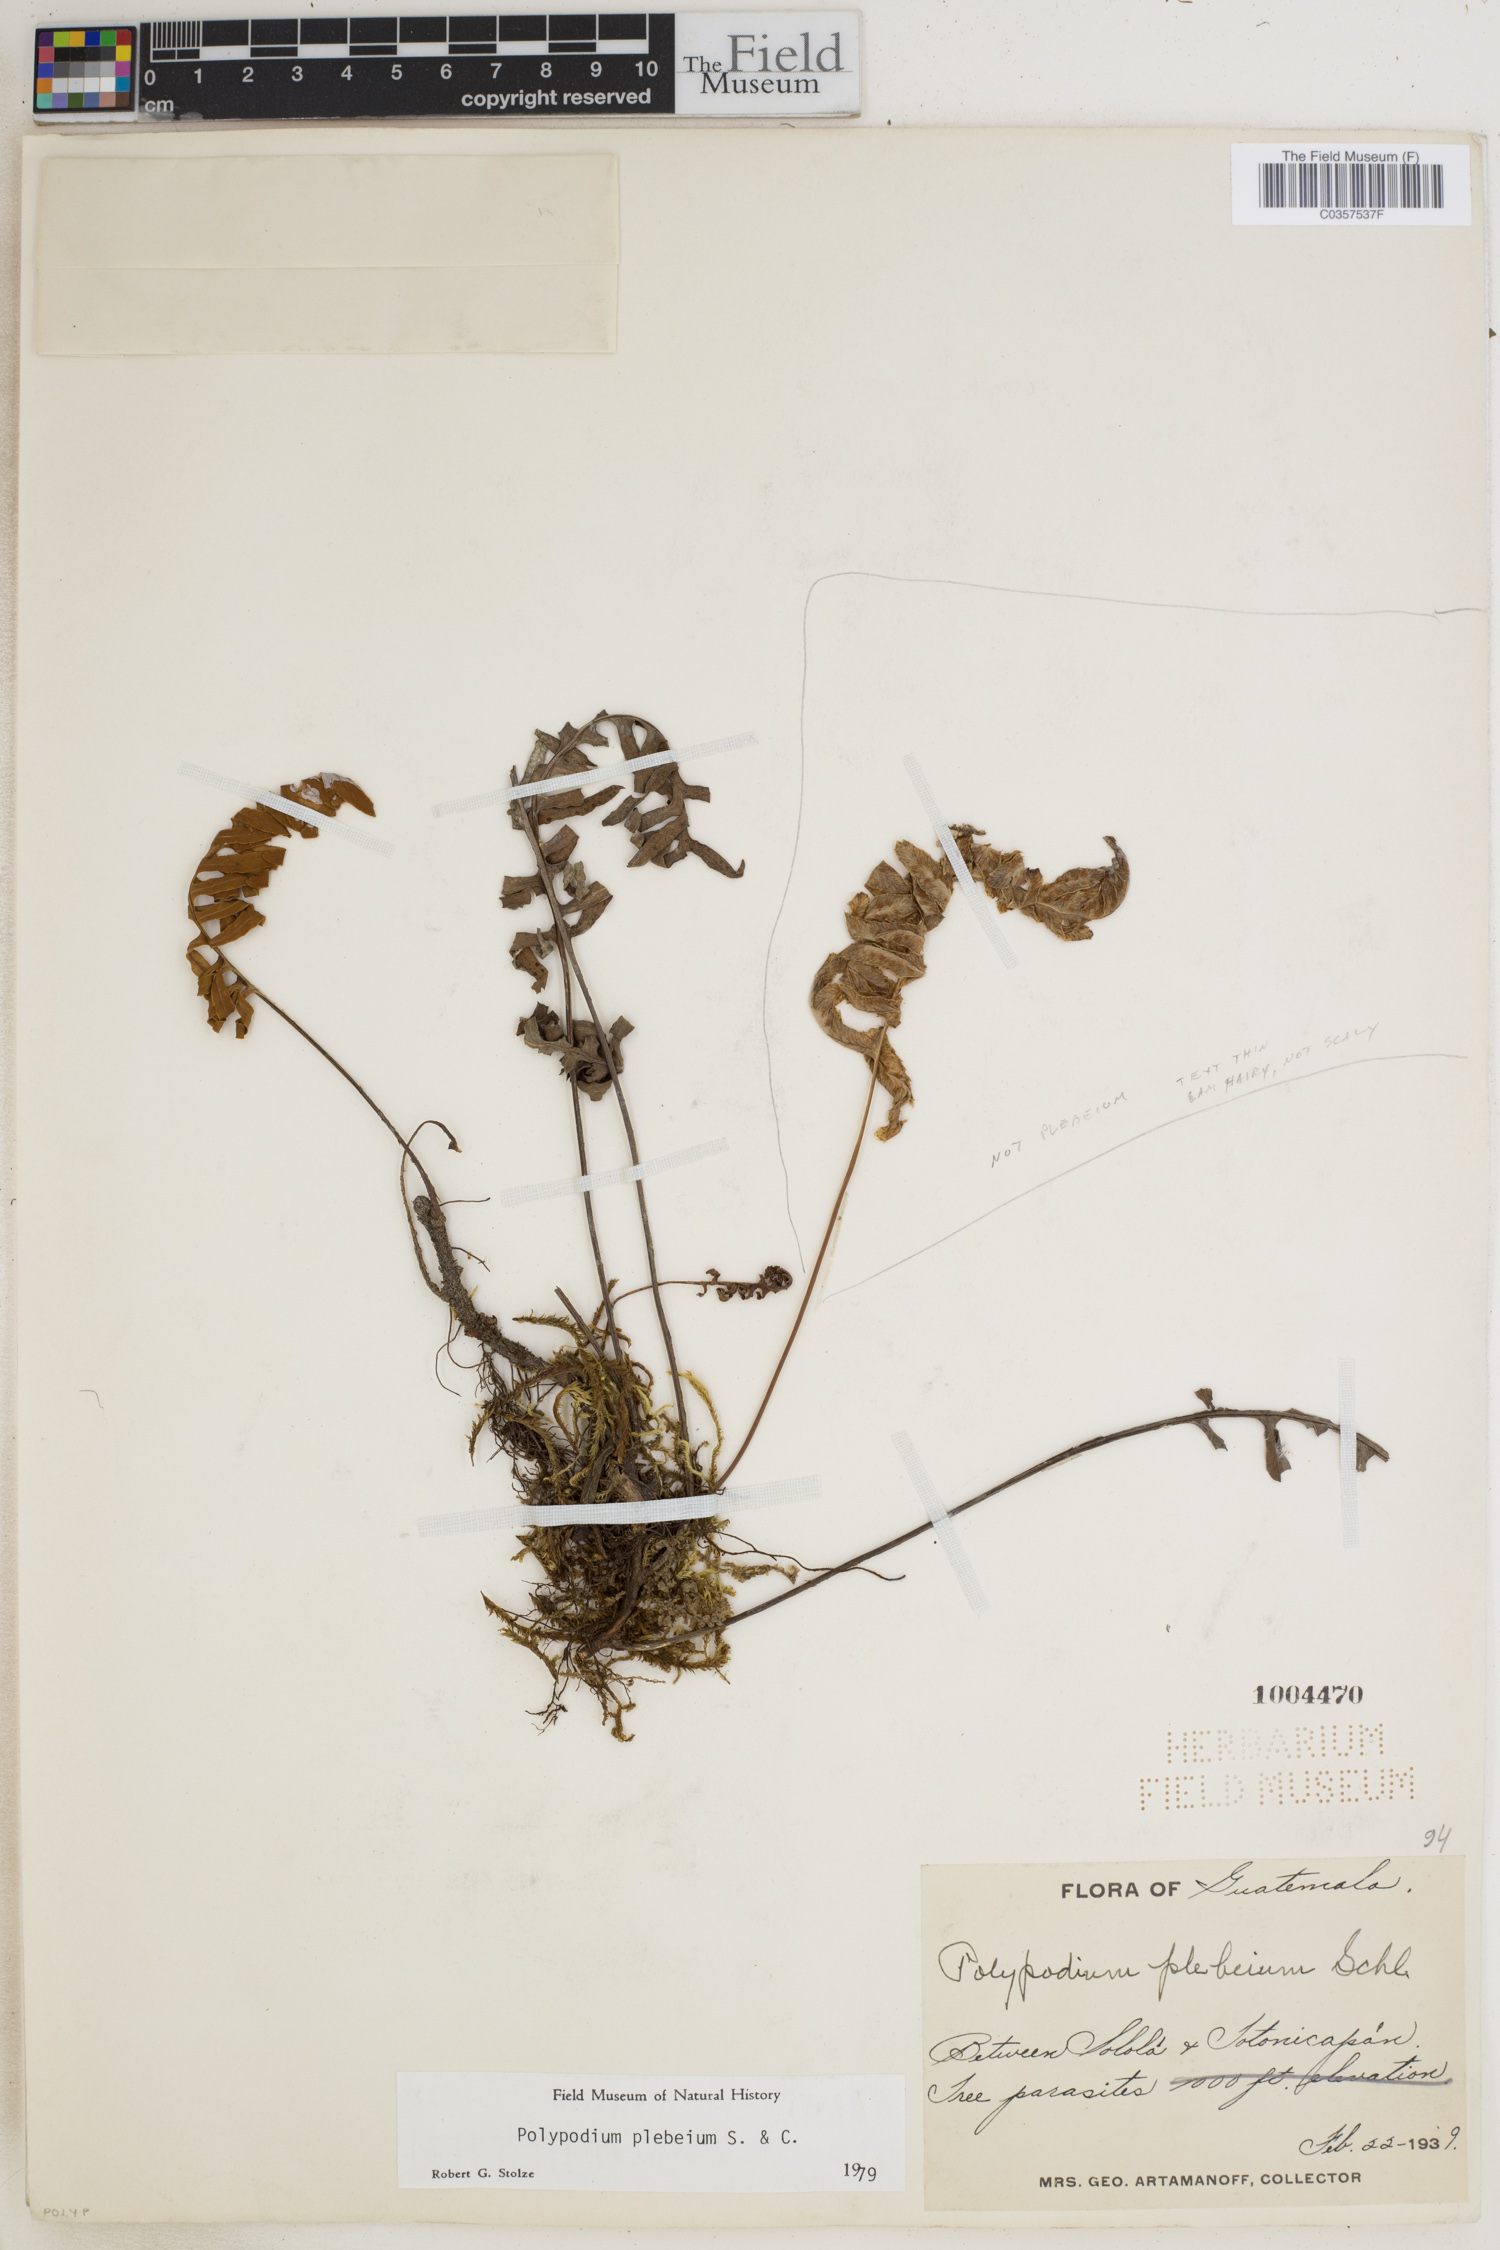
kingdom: Plantae
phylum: Tracheophyta
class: Polypodiopsida
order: Polypodiales
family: Polypodiaceae
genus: Pleopeltis
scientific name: Pleopeltis plebeia
